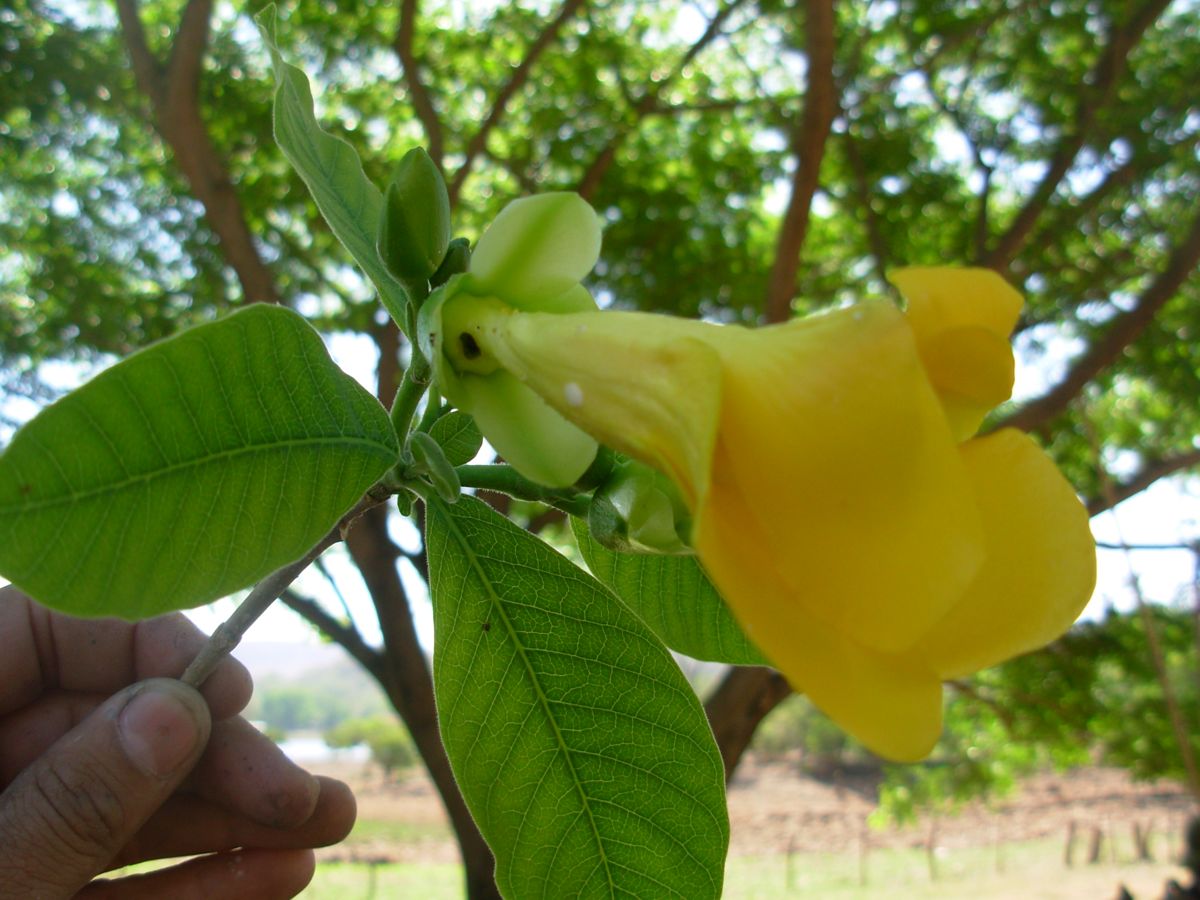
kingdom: Plantae
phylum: Tracheophyta
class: Magnoliopsida
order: Gentianales
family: Apocynaceae
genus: Tabernaemontana
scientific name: Tabernaemontana glabra
